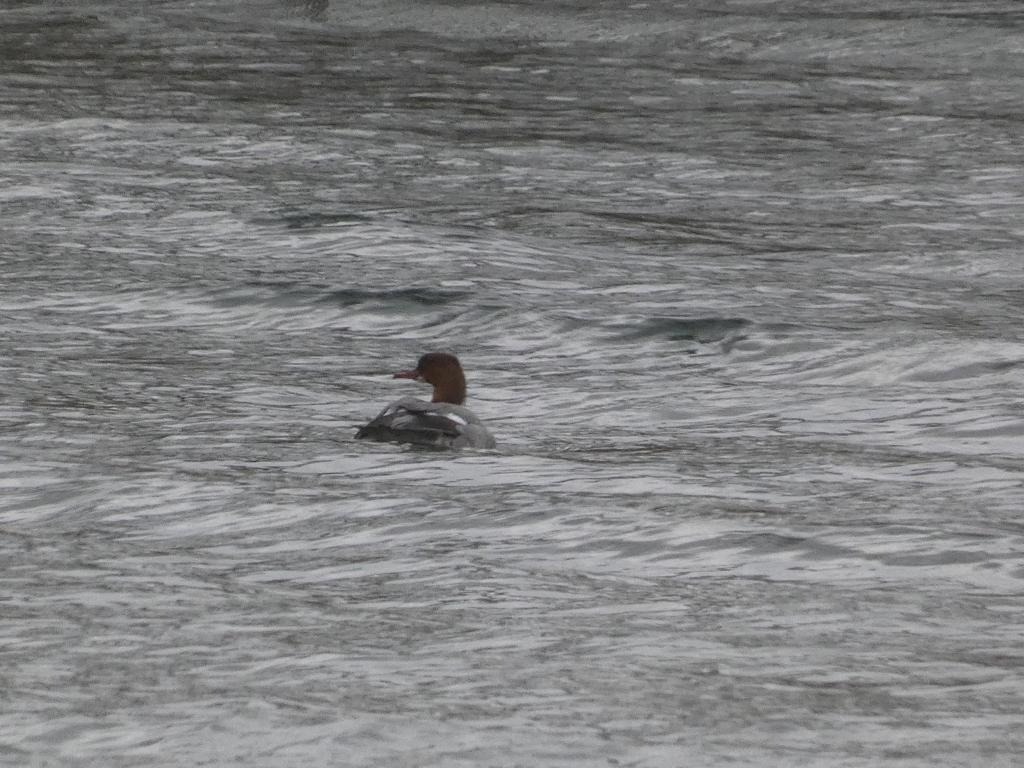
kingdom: Animalia
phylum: Chordata
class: Aves
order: Anseriformes
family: Anatidae
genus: Mergus
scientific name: Mergus merganser
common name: Stor skallesluger
